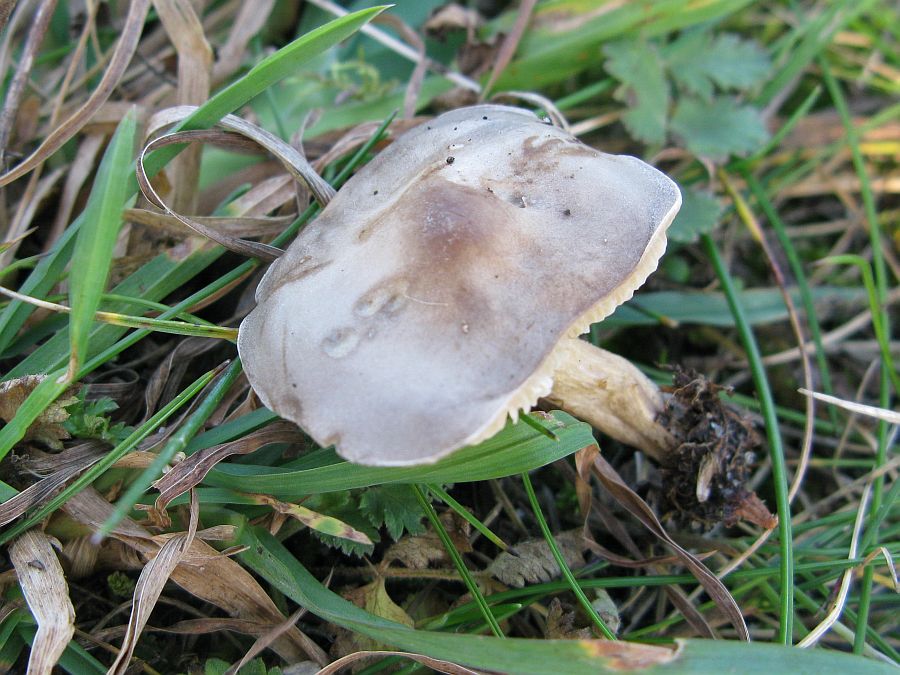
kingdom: Fungi
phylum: Basidiomycota
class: Agaricomycetes
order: Agaricales
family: Tricholomataceae
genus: Melanoleuca
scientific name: Melanoleuca oreina
